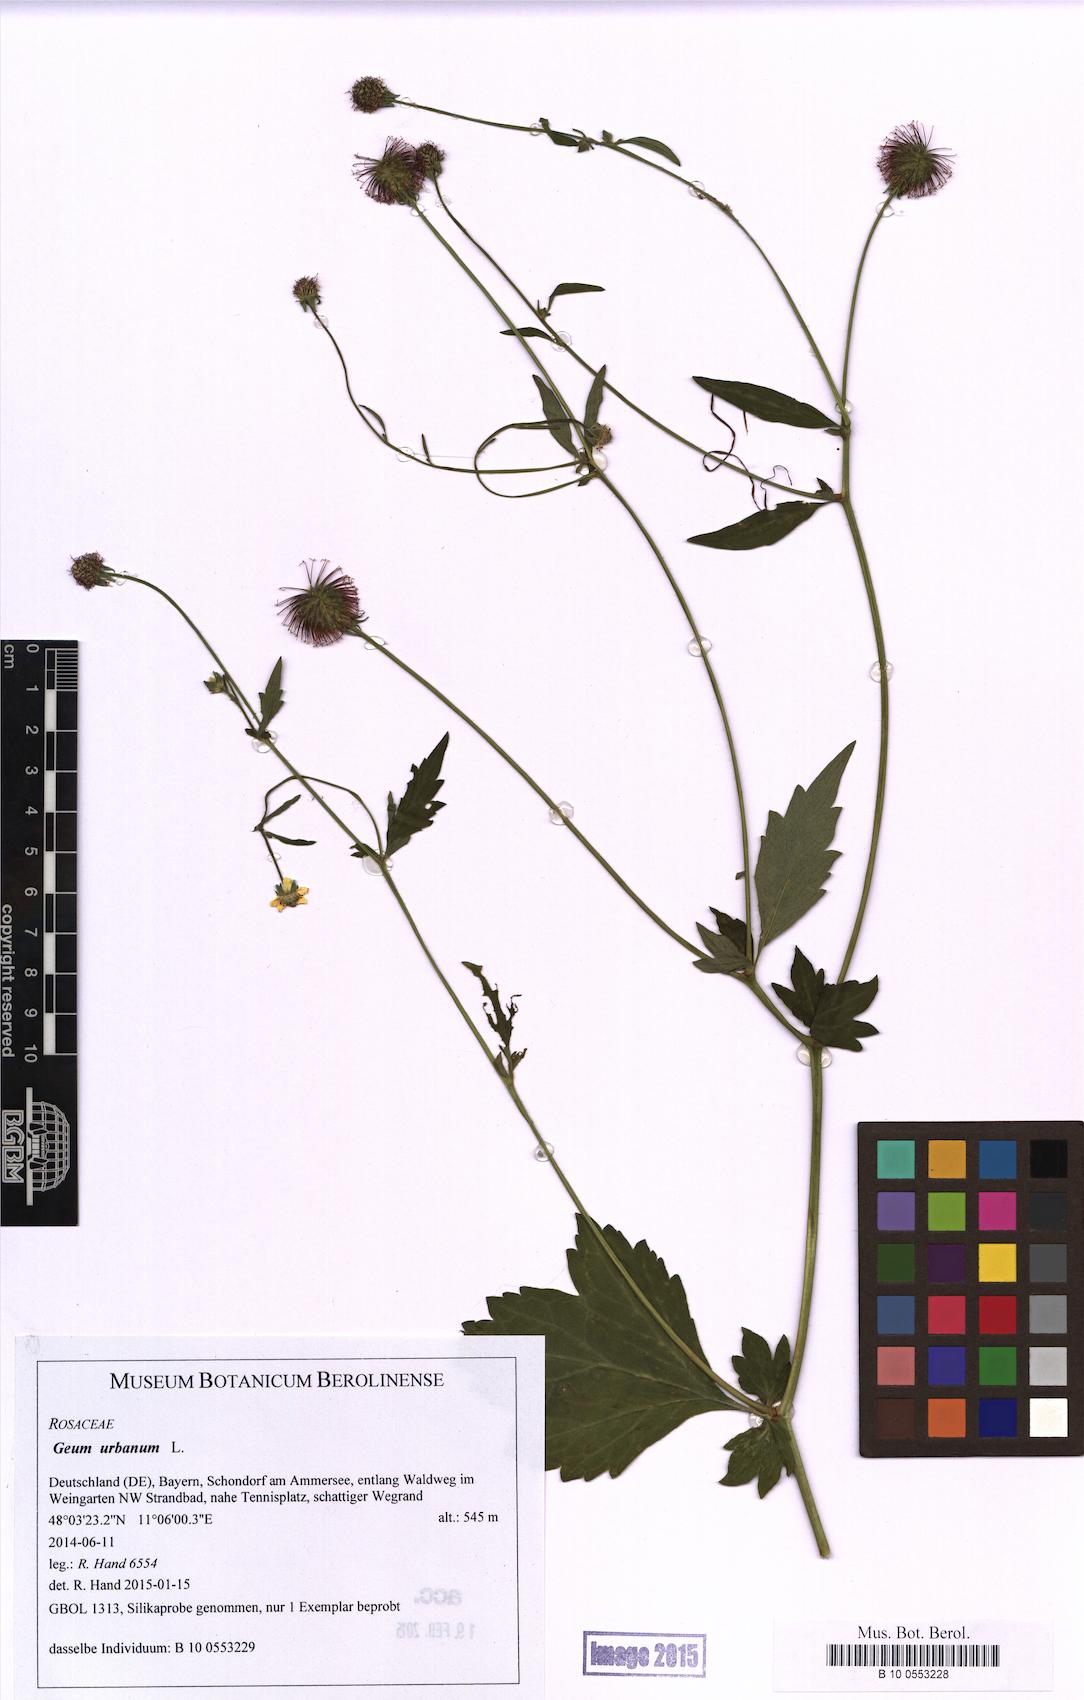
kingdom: Plantae
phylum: Tracheophyta
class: Magnoliopsida
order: Rosales
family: Rosaceae
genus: Geum
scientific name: Geum urbanum
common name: Wood avens
